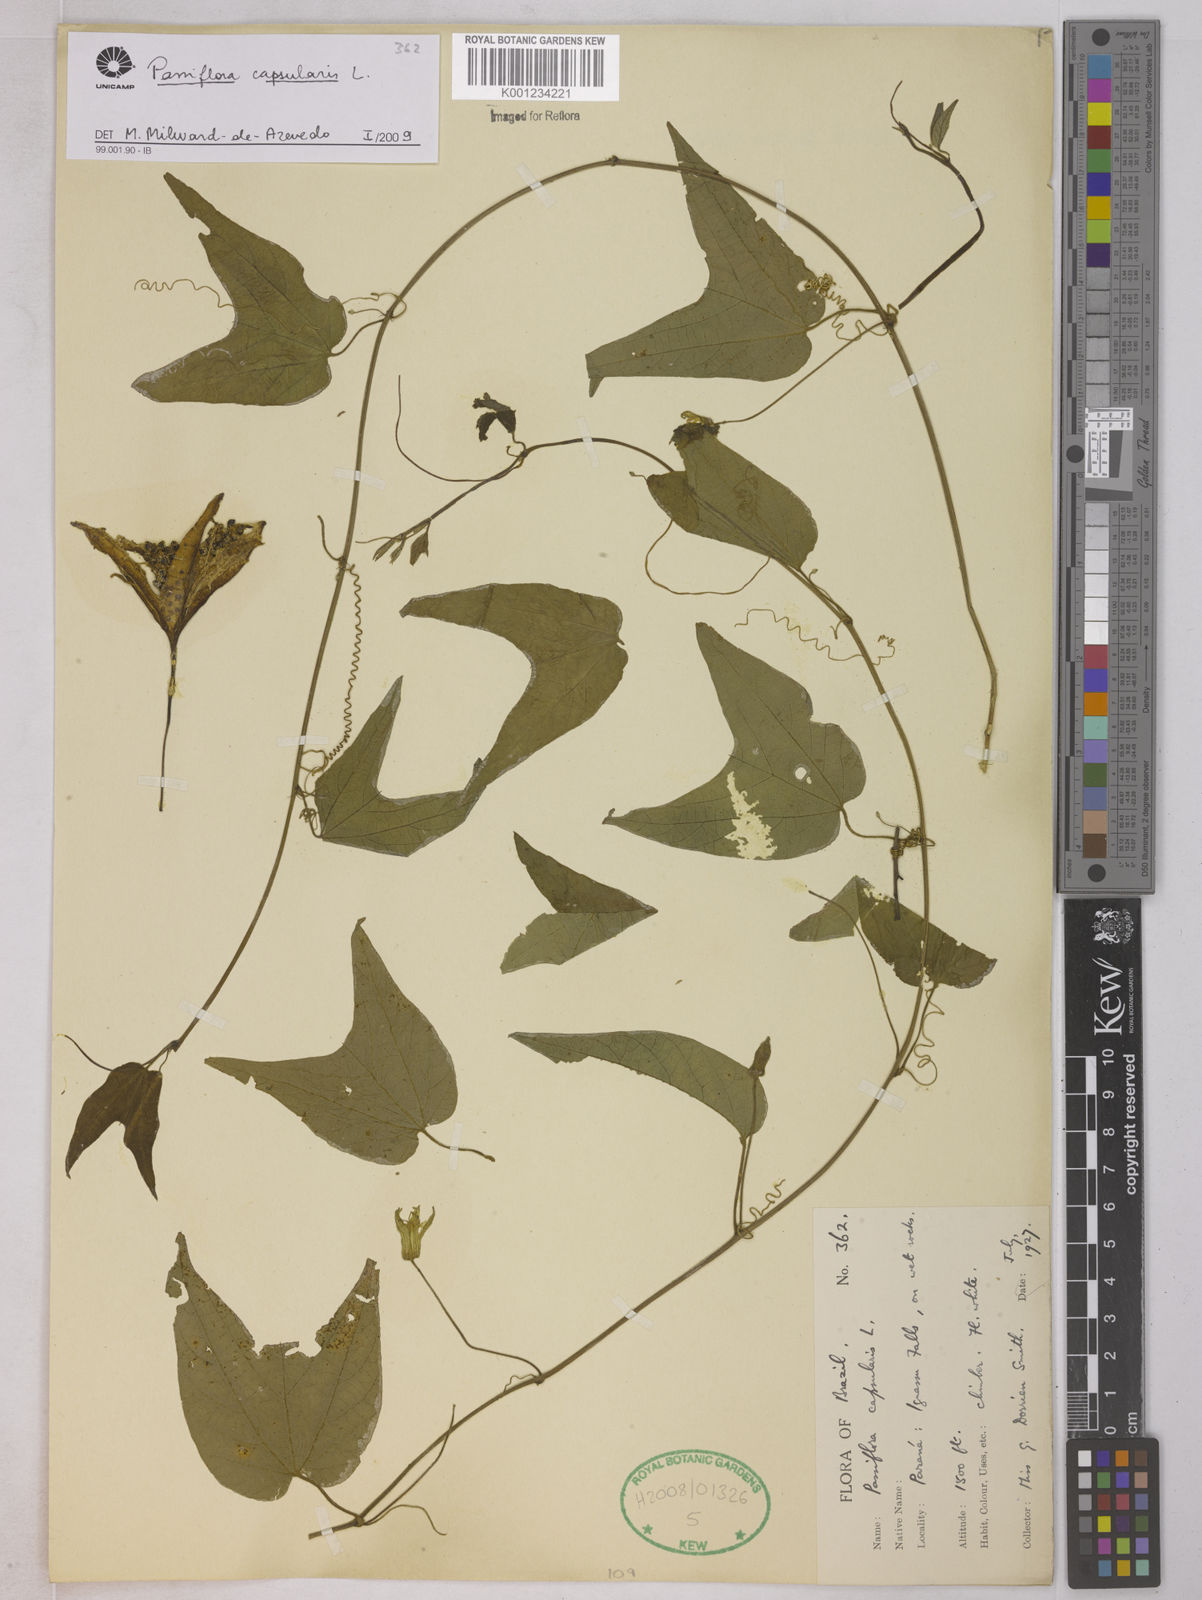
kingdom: Plantae
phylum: Tracheophyta
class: Magnoliopsida
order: Malpighiales
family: Passifloraceae
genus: Passiflora
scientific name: Passiflora capsularis
